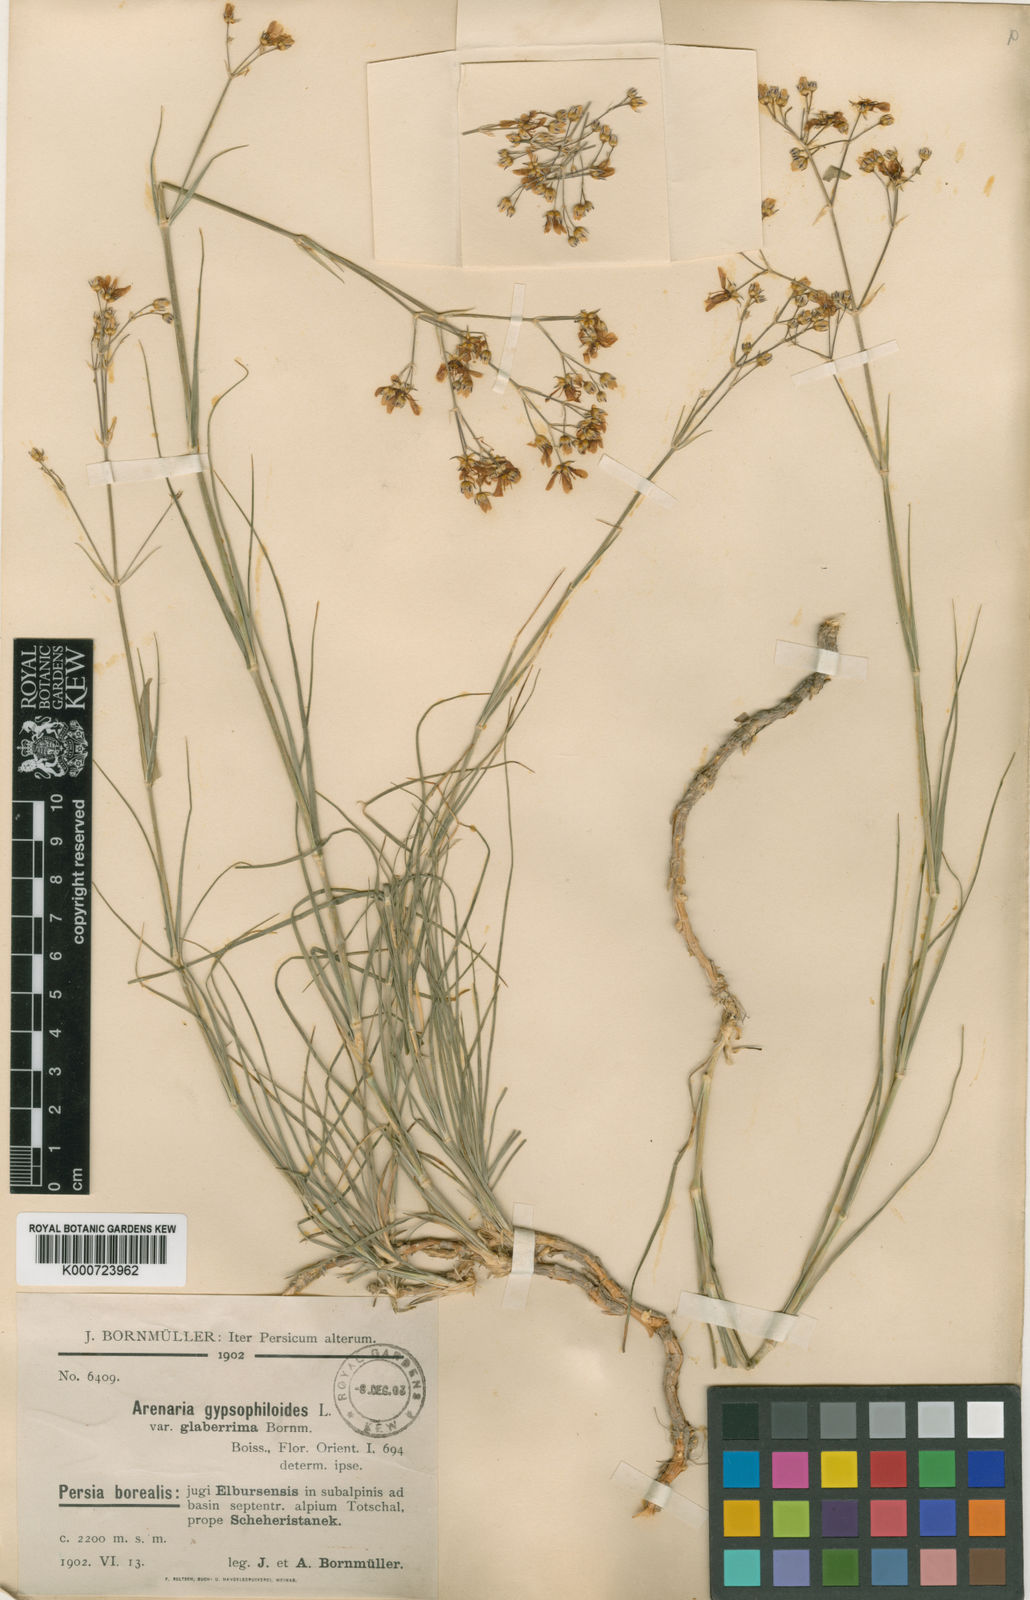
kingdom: Plantae
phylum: Tracheophyta
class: Magnoliopsida
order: Caryophyllales
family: Caryophyllaceae
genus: Eremogone
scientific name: Eremogone gypsophiloides
